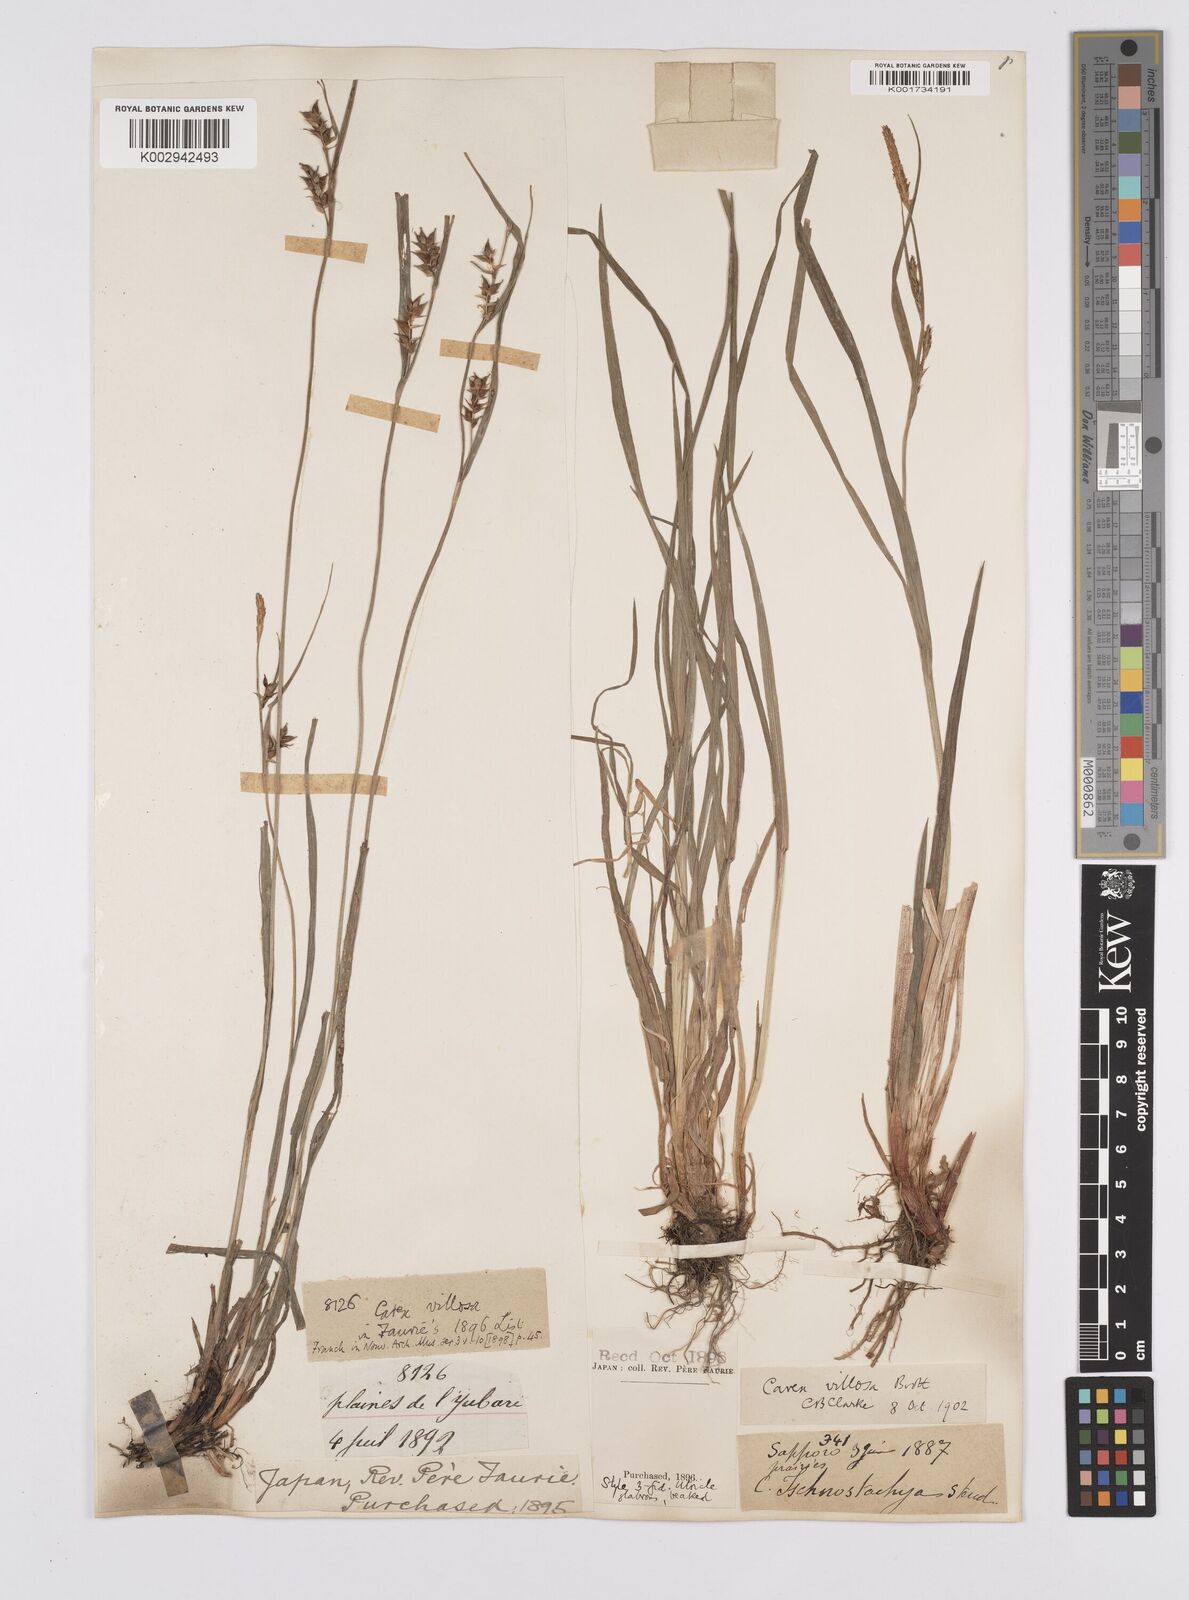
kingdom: Plantae
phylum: Tracheophyta
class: Liliopsida
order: Poales
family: Cyperaceae
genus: Carex
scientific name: Carex latisquamea
